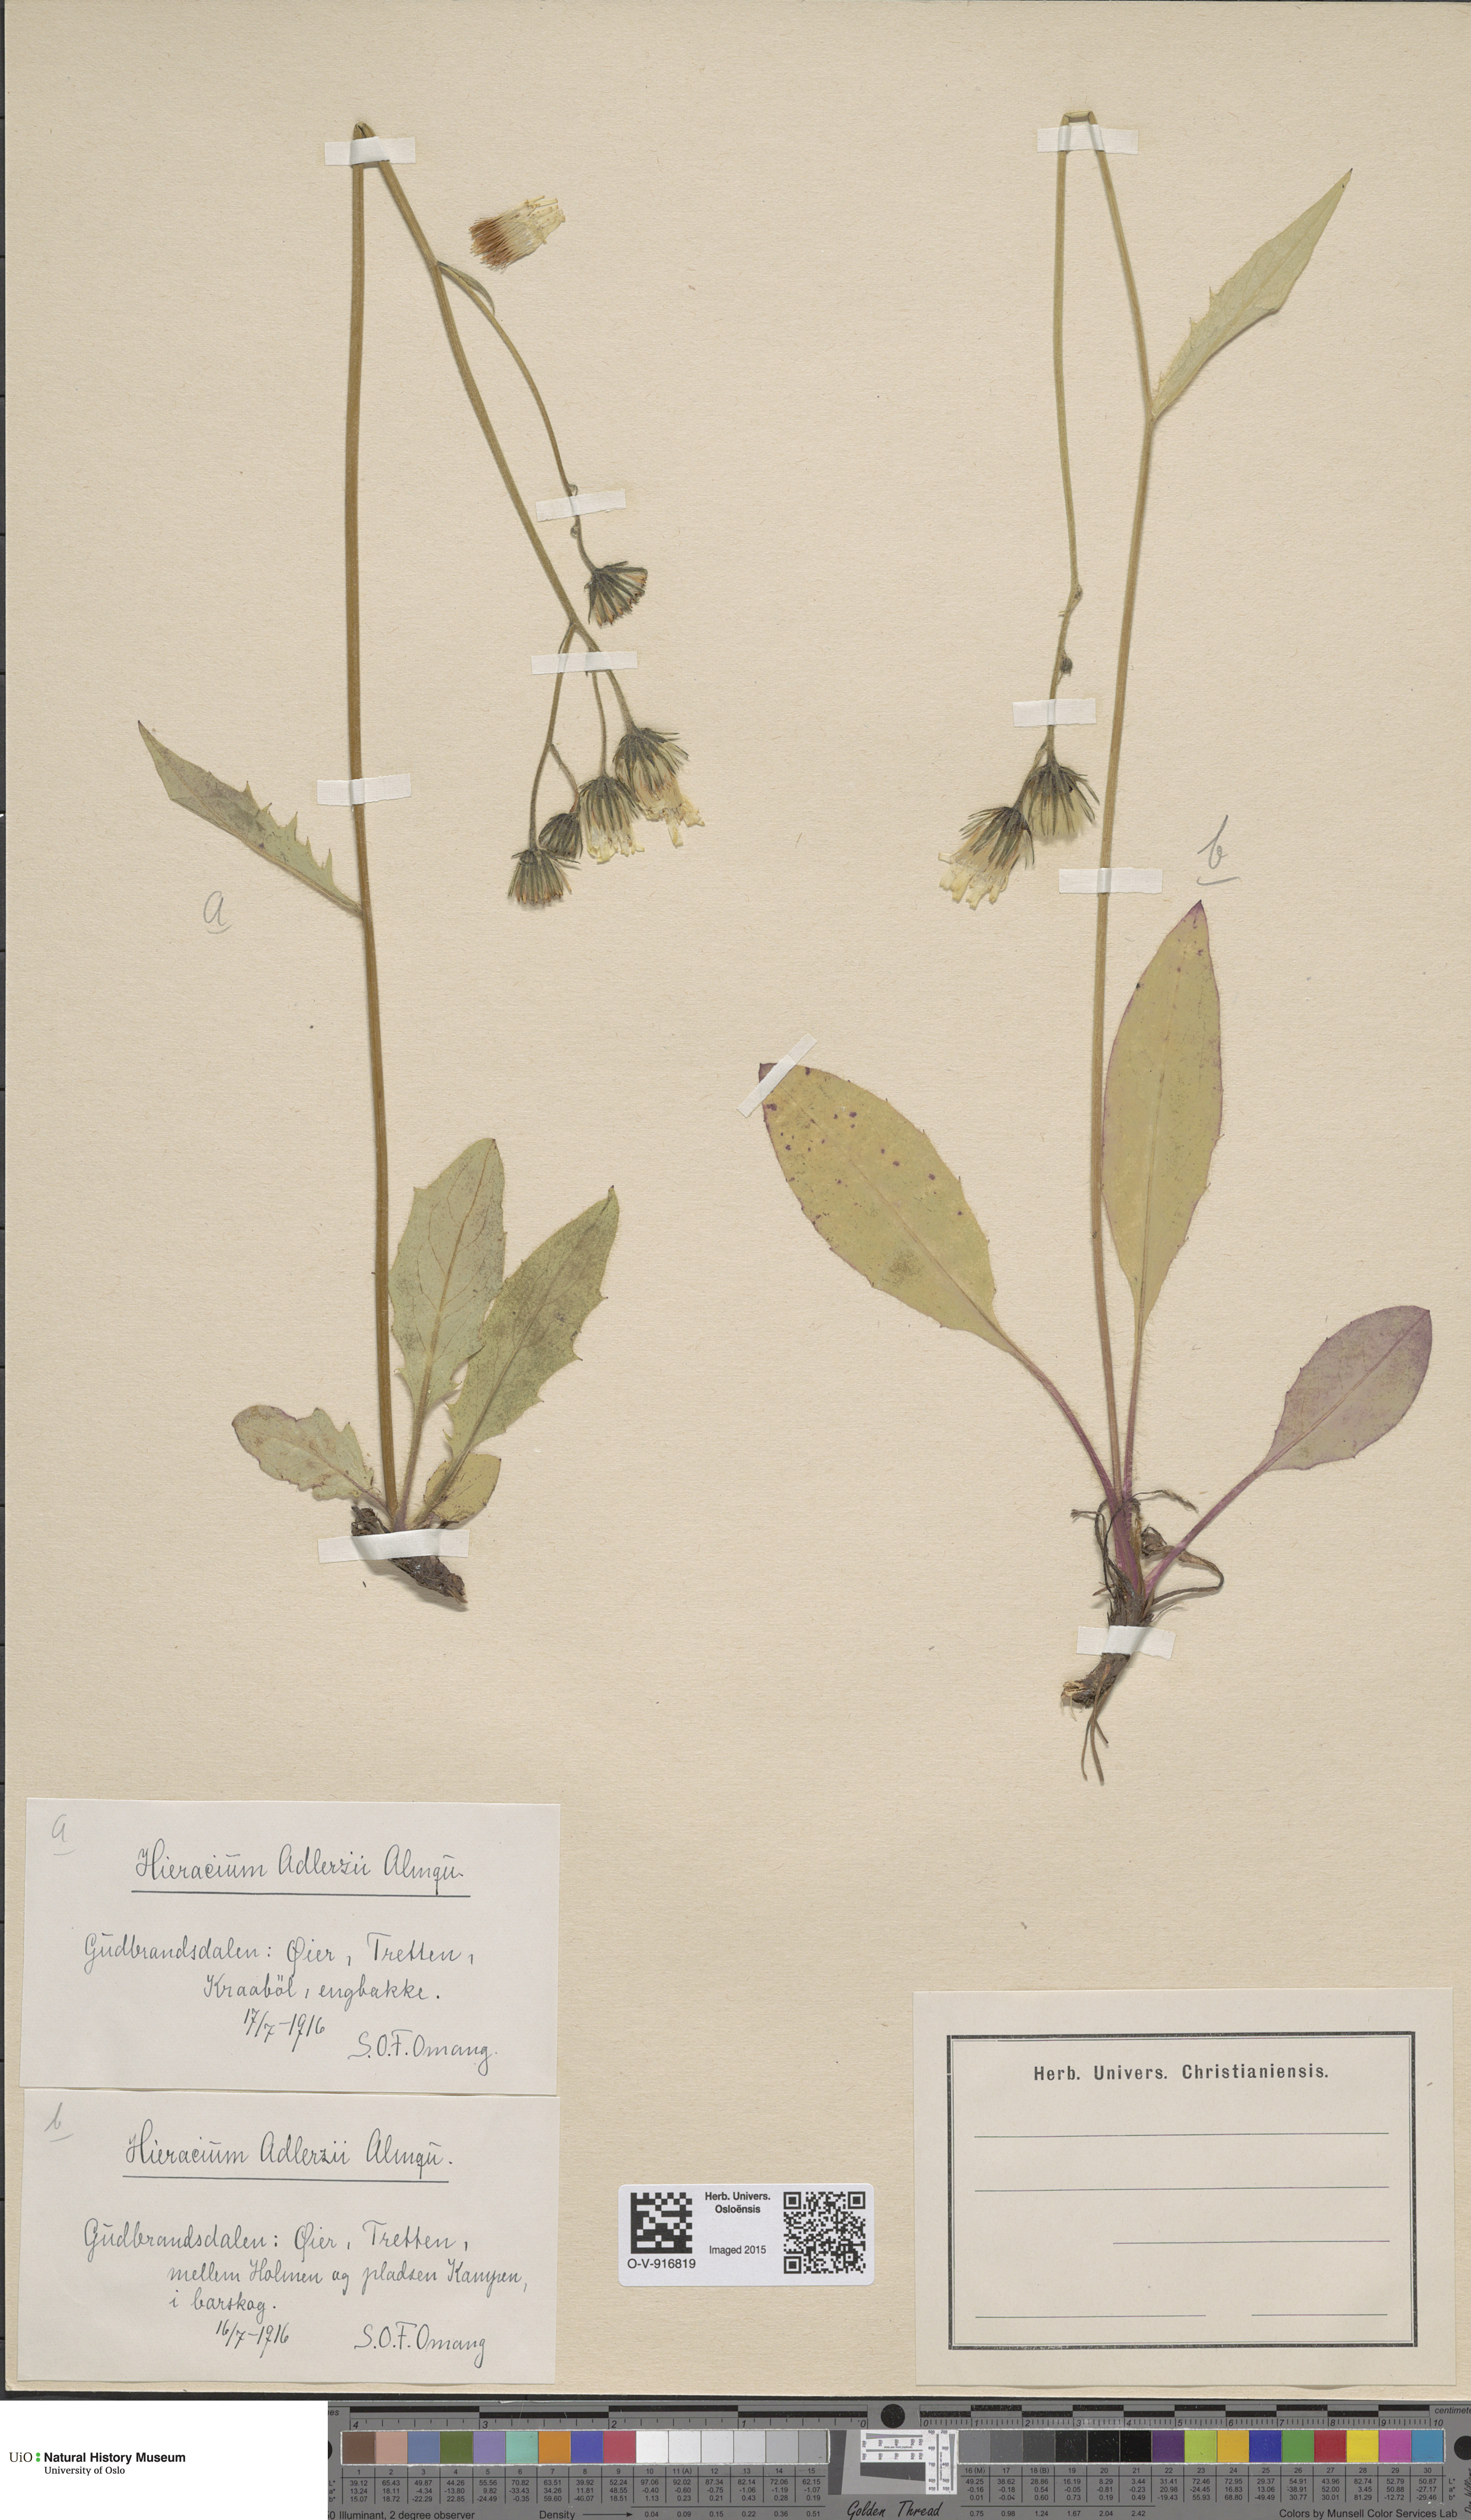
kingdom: Plantae
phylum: Tracheophyta
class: Magnoliopsida
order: Asterales
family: Asteraceae
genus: Hieracium
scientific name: Hieracium
